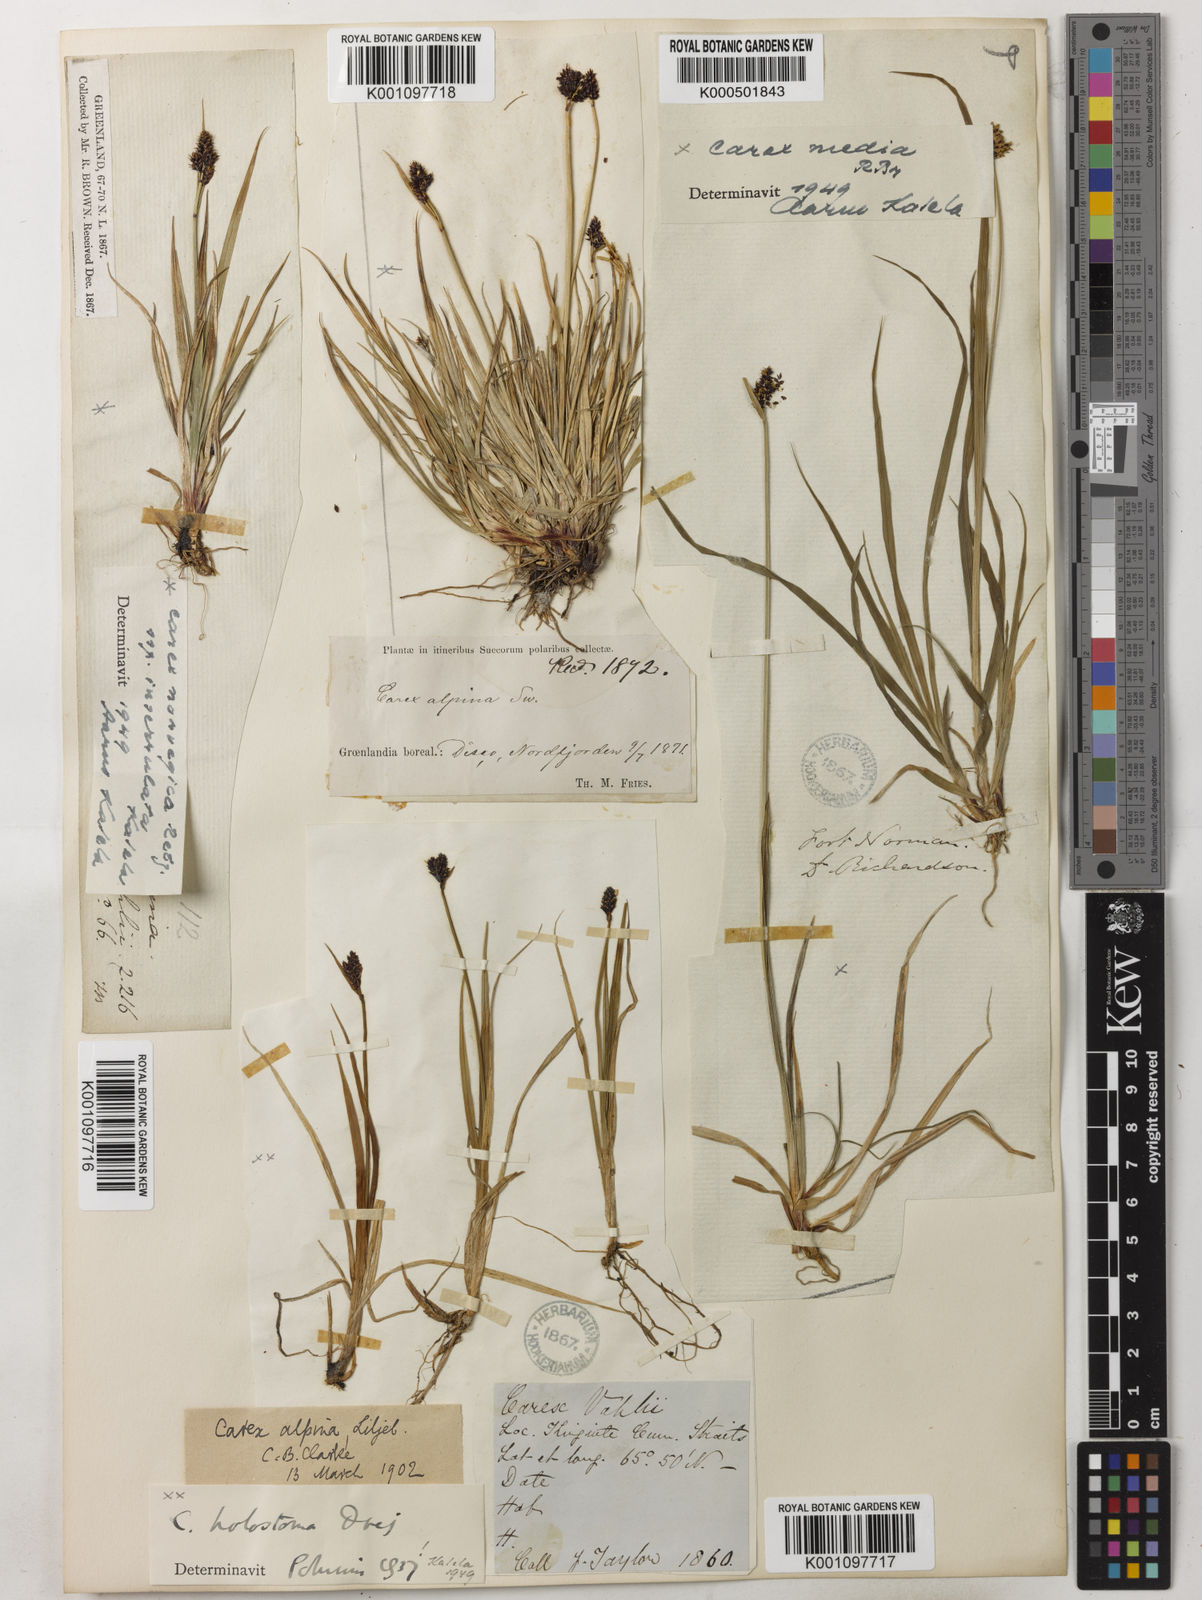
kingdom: Plantae
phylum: Tracheophyta
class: Liliopsida
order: Poales
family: Cyperaceae
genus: Carex
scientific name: Carex media
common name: Alpine sedge
